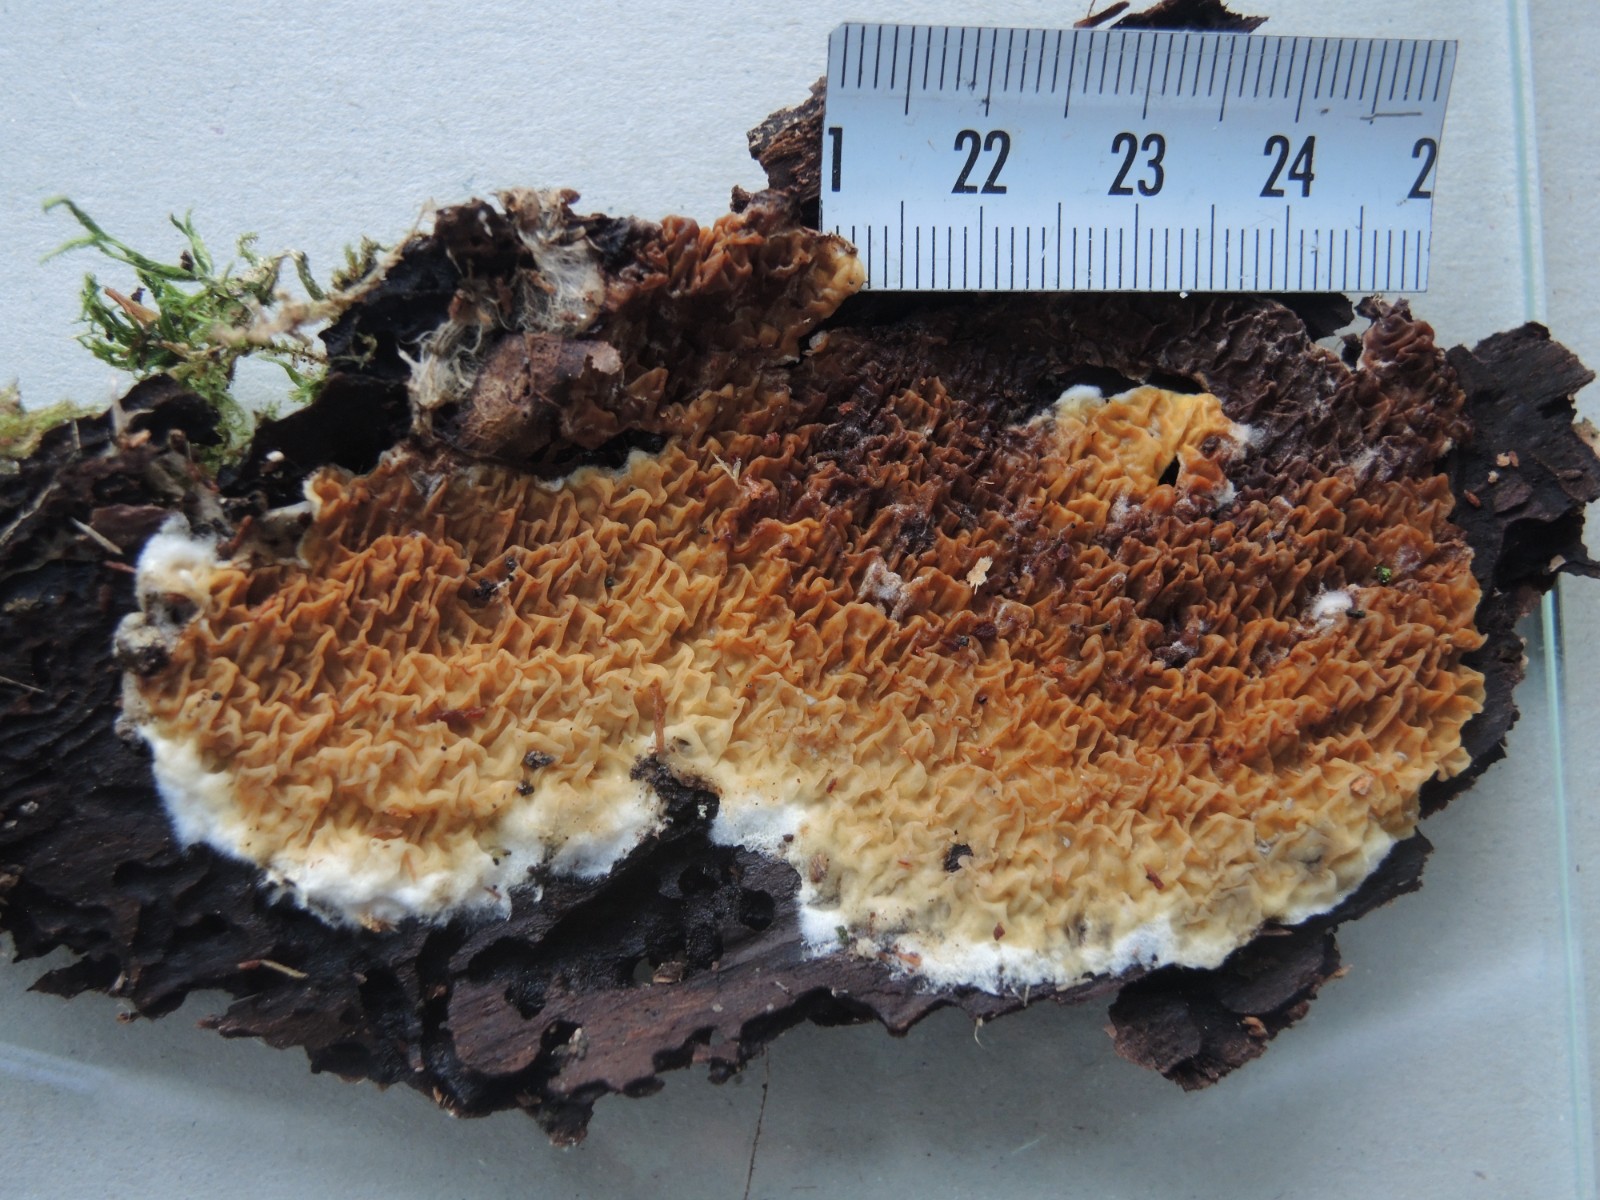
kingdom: Fungi
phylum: Basidiomycota
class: Agaricomycetes
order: Boletales
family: Serpulaceae
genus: Serpula
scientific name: Serpula himantioides
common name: tyndkødet hussvamp
